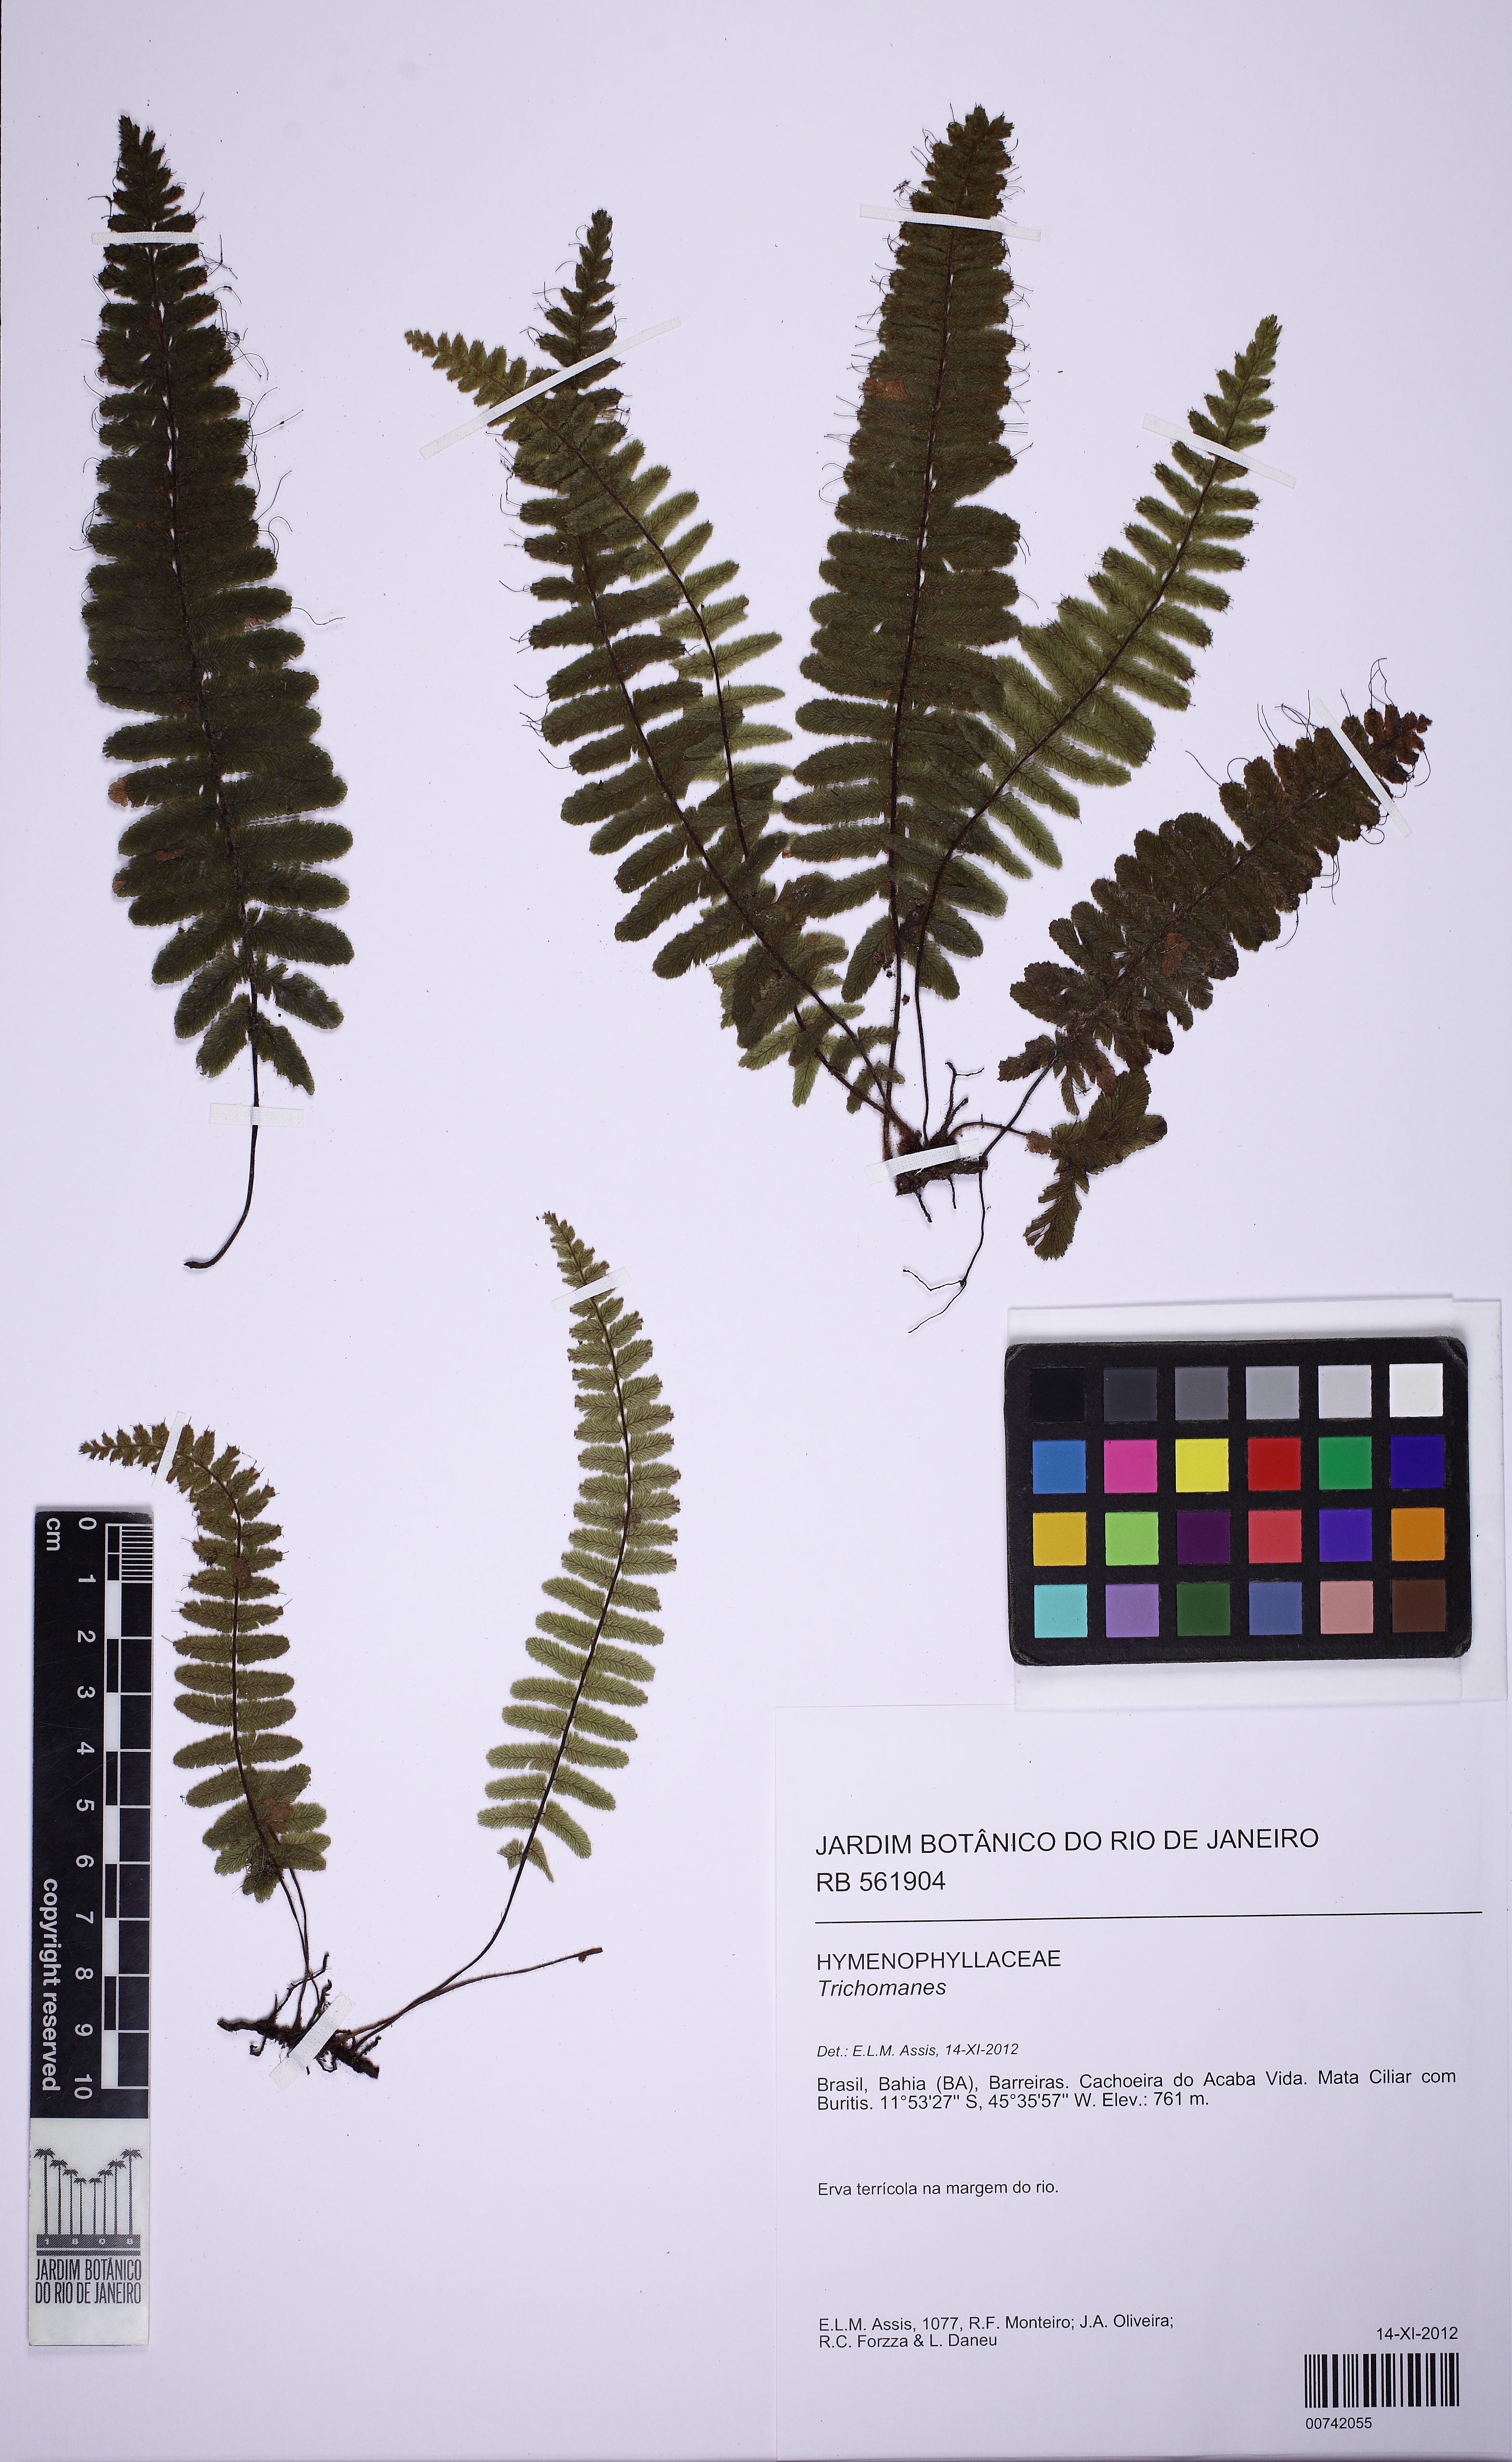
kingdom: Plantae
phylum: Tracheophyta
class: Polypodiopsida
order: Hymenophyllales
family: Hymenophyllaceae
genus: Trichomanes
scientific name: Trichomanes
